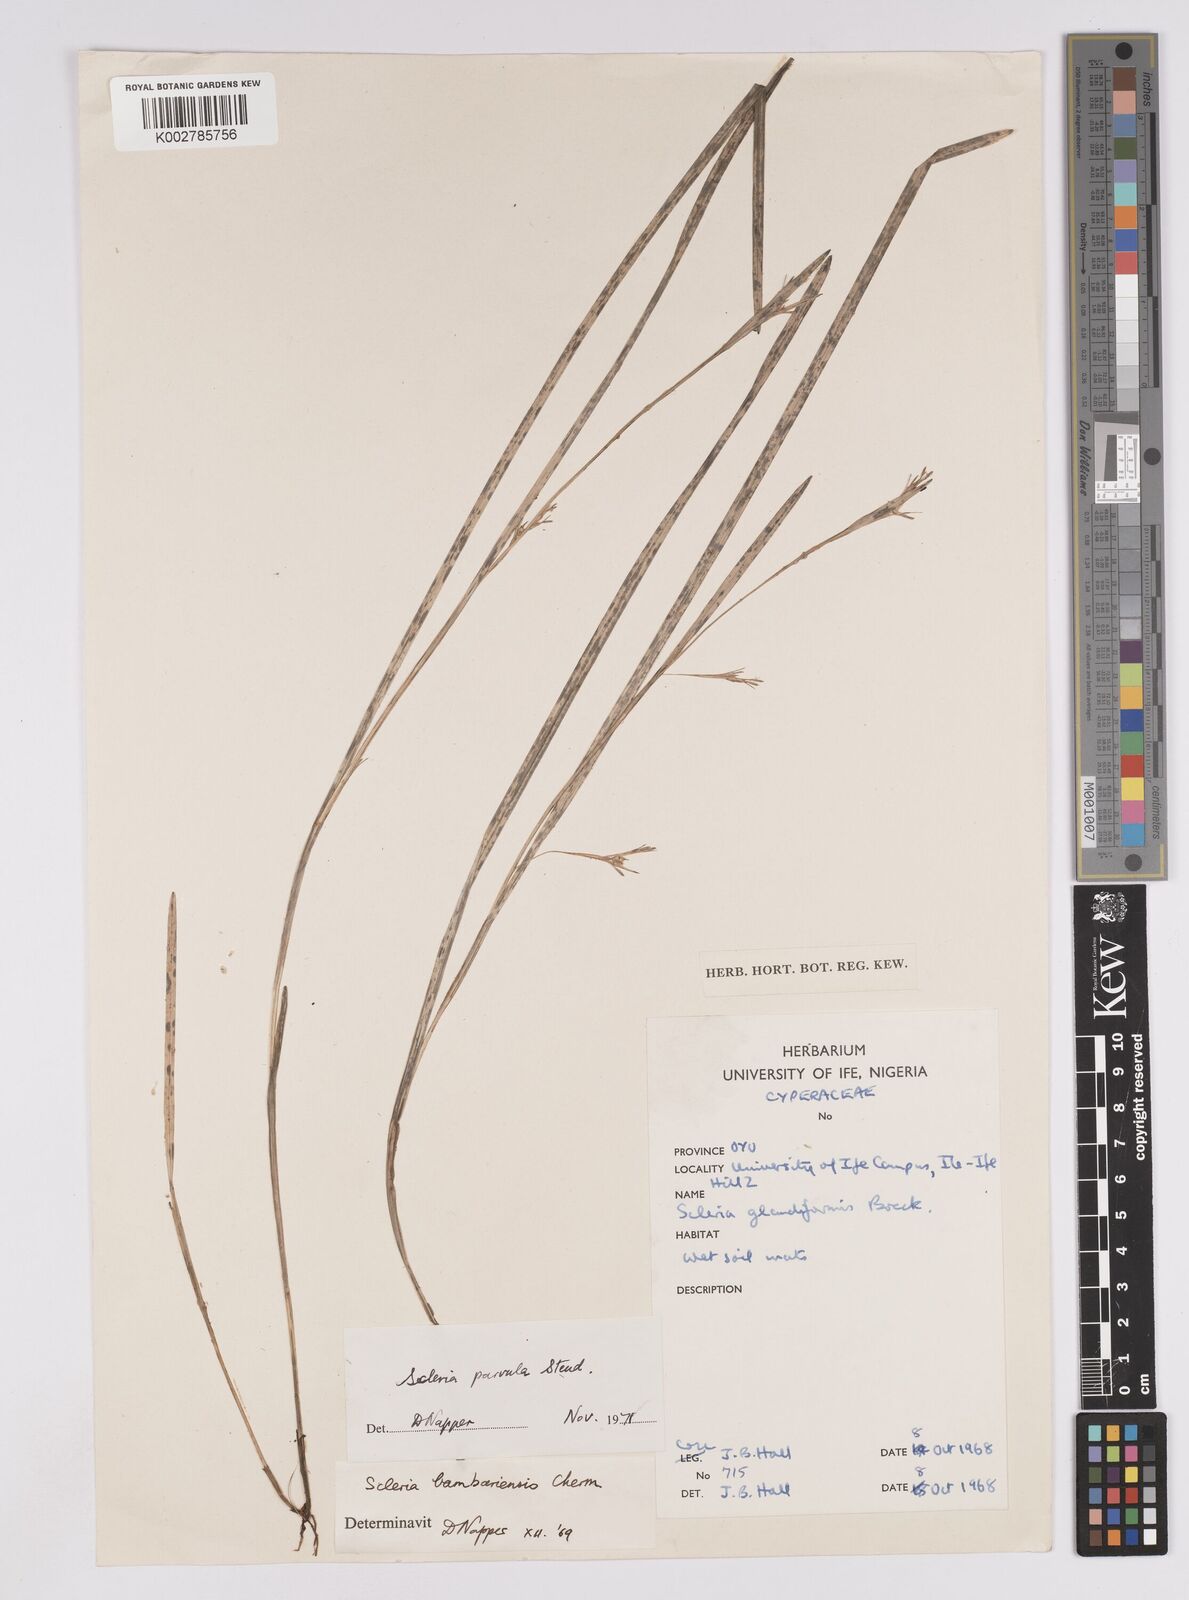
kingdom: Plantae
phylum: Tracheophyta
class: Liliopsida
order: Poales
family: Cyperaceae
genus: Scleria
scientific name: Scleria parvula
